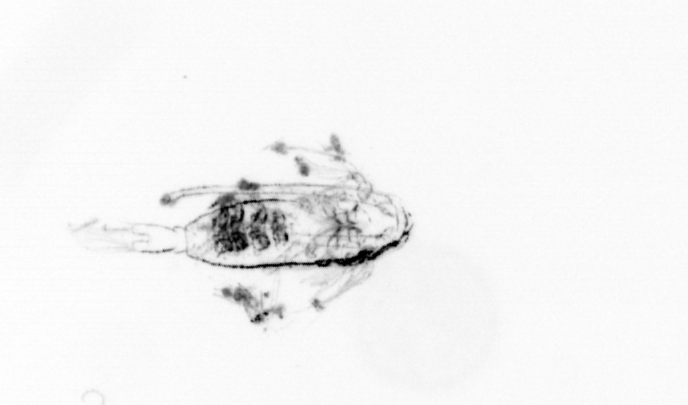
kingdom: Animalia
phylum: Arthropoda
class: Copepoda
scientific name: Copepoda
